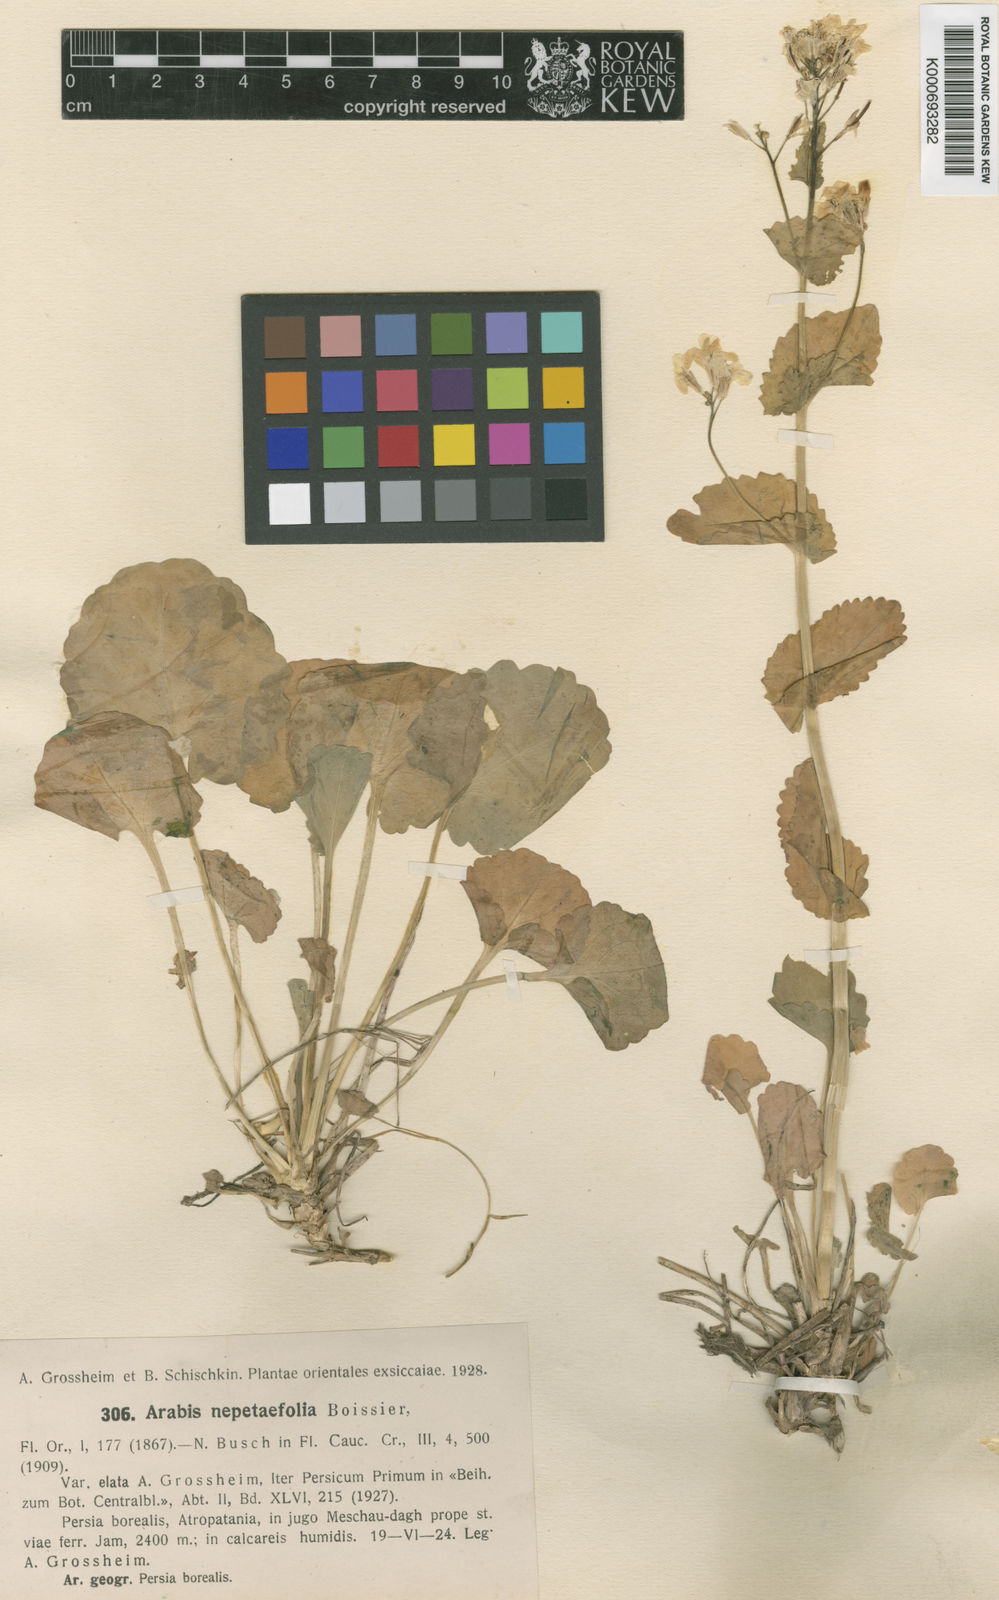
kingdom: Plantae
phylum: Tracheophyta
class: Magnoliopsida
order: Brassicales
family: Brassicaceae
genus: Arabis
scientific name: Arabis nepetifolia
